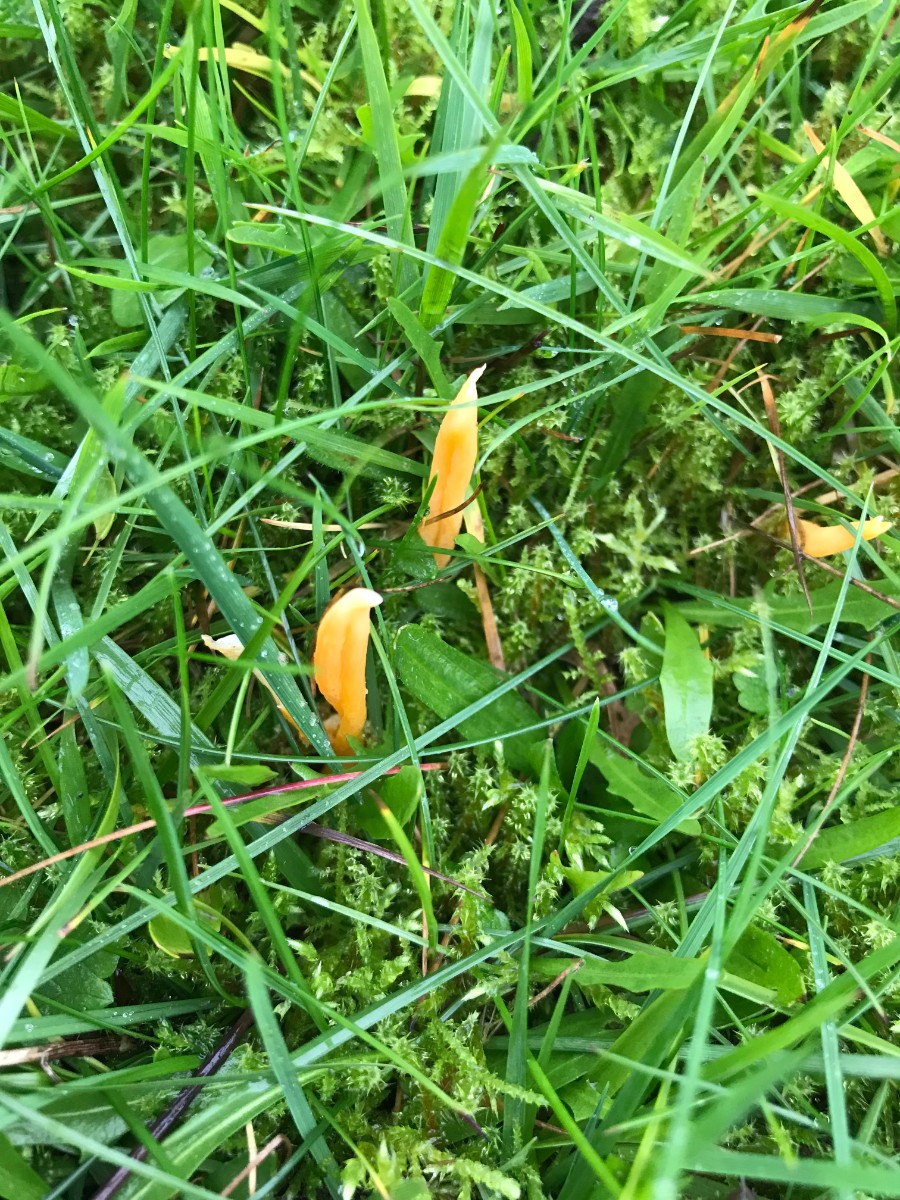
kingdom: Fungi
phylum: Basidiomycota
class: Agaricomycetes
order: Agaricales
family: Clavariaceae
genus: Clavulinopsis
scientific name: Clavulinopsis luteoalba
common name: abrikos-køllesvamp
